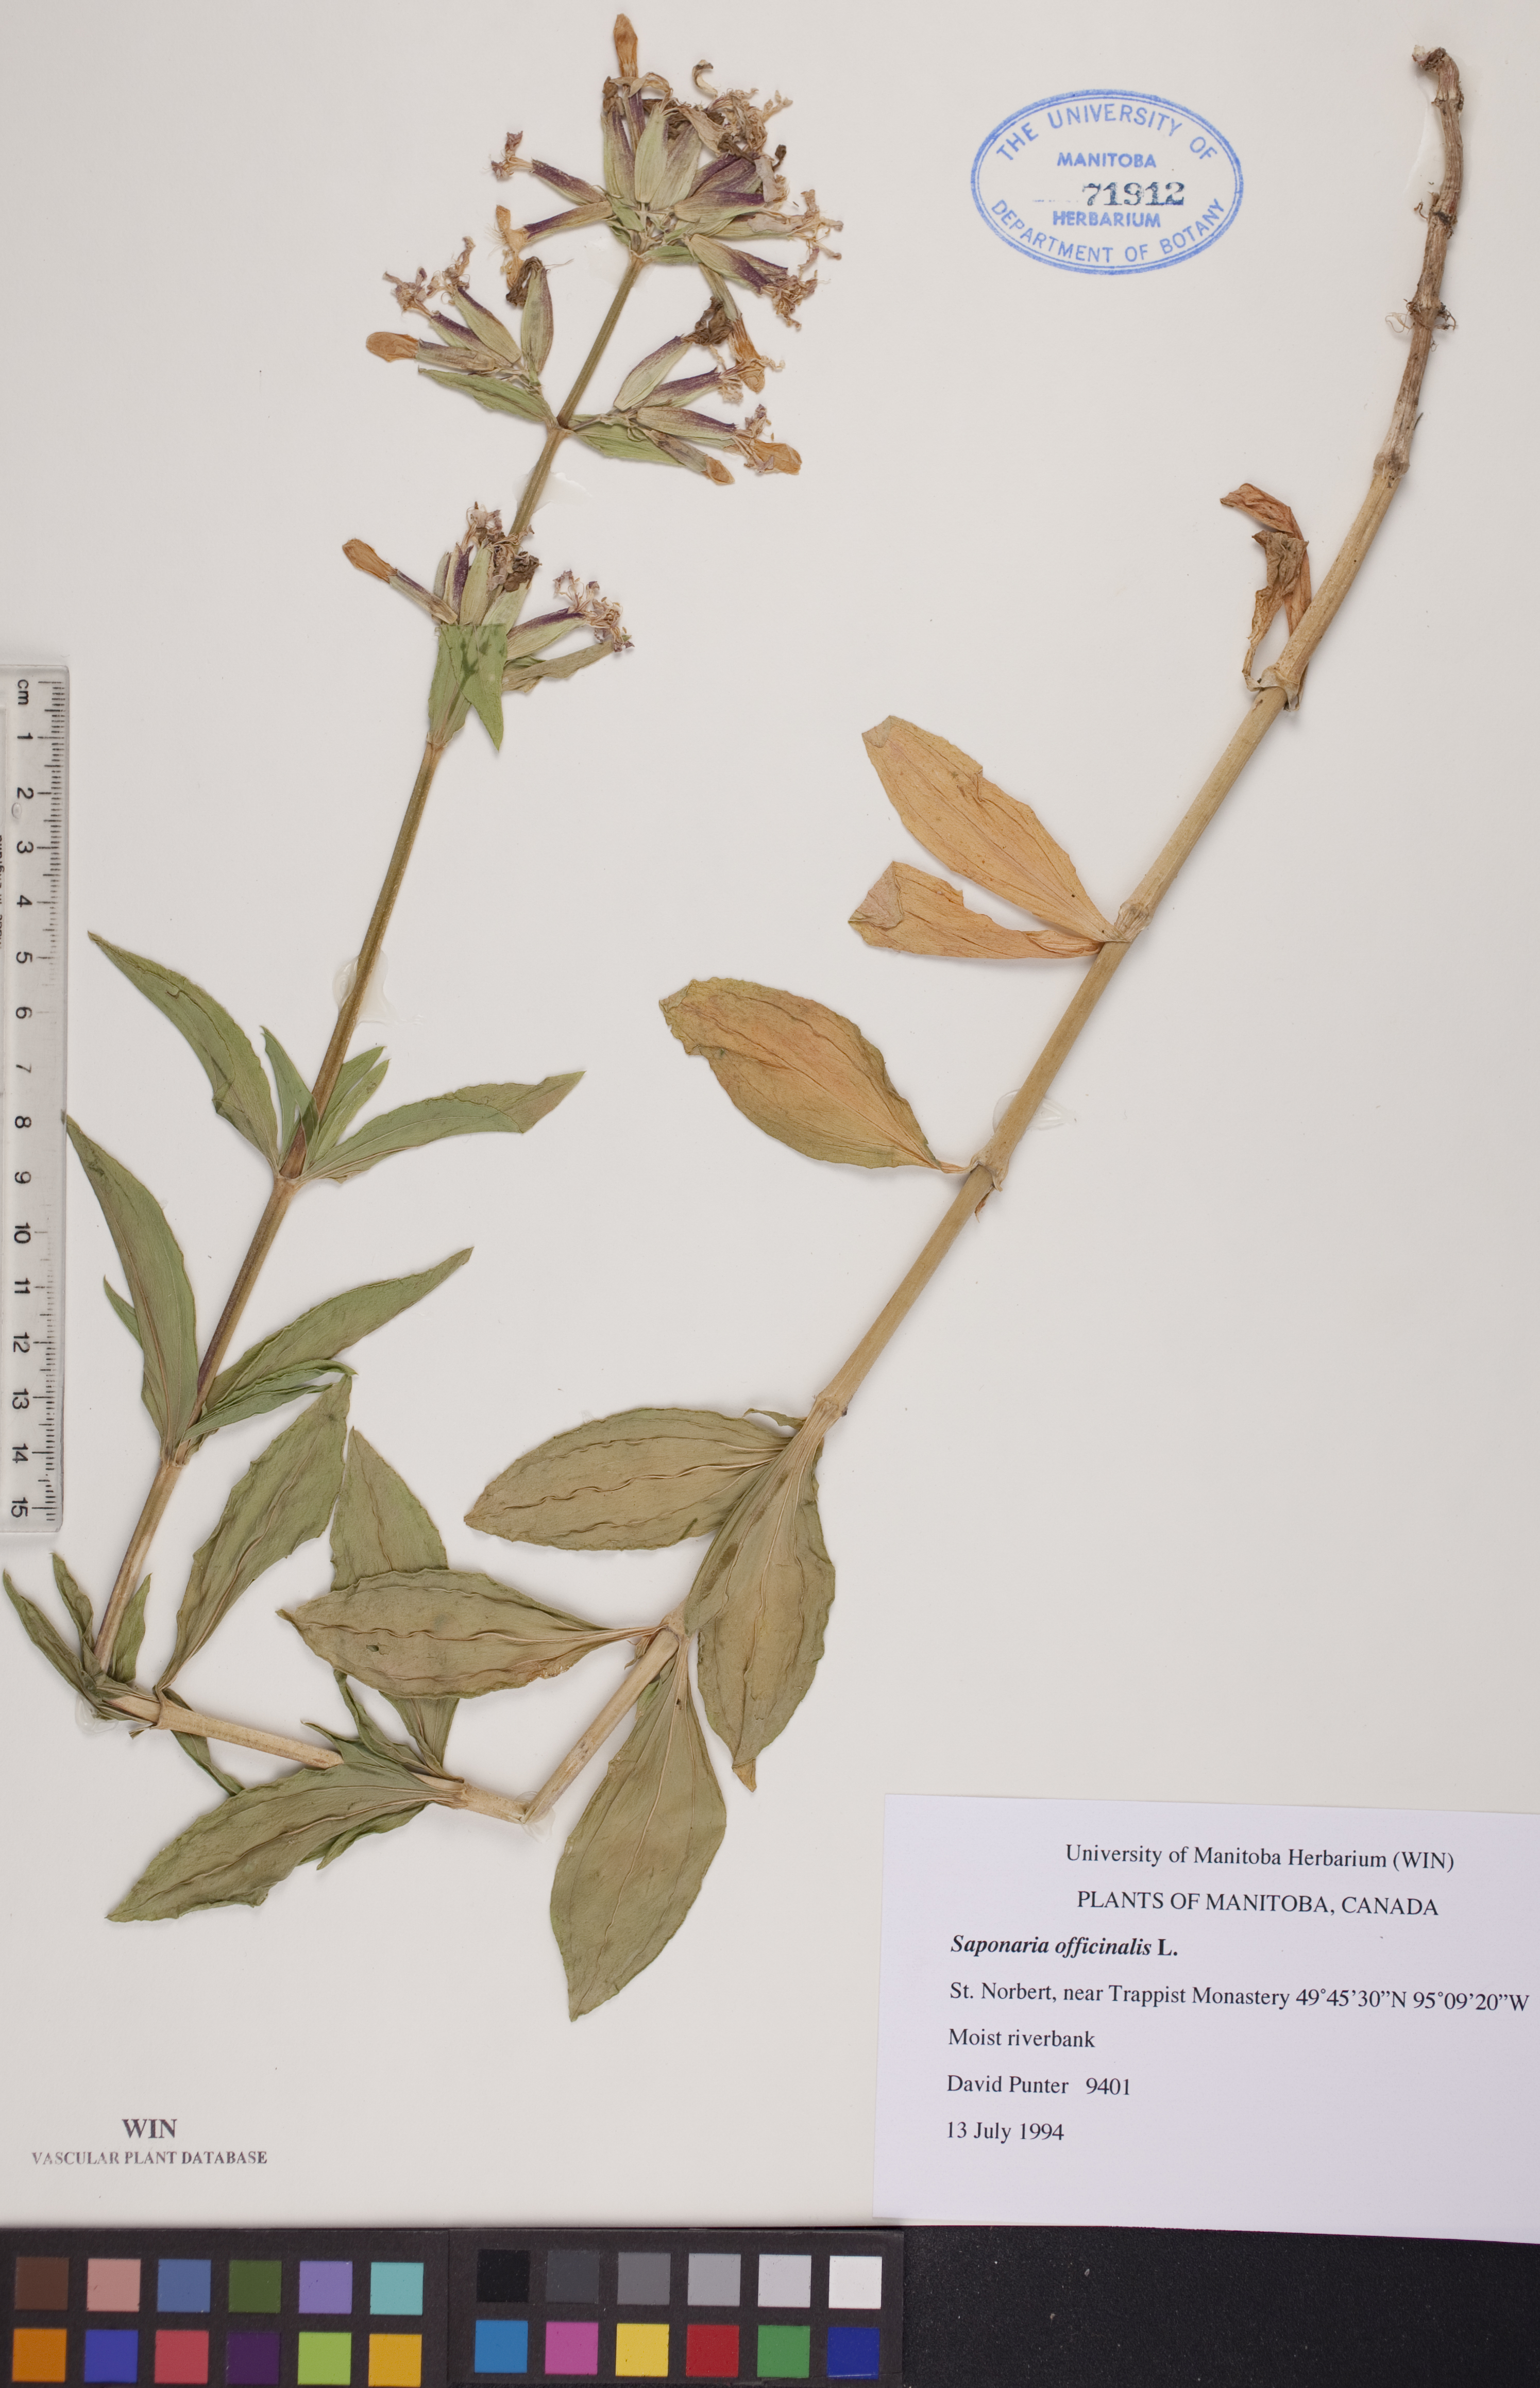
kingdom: Plantae
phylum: Tracheophyta
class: Magnoliopsida
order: Caryophyllales
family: Caryophyllaceae
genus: Saponaria
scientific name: Saponaria officinalis
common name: Soapwort
